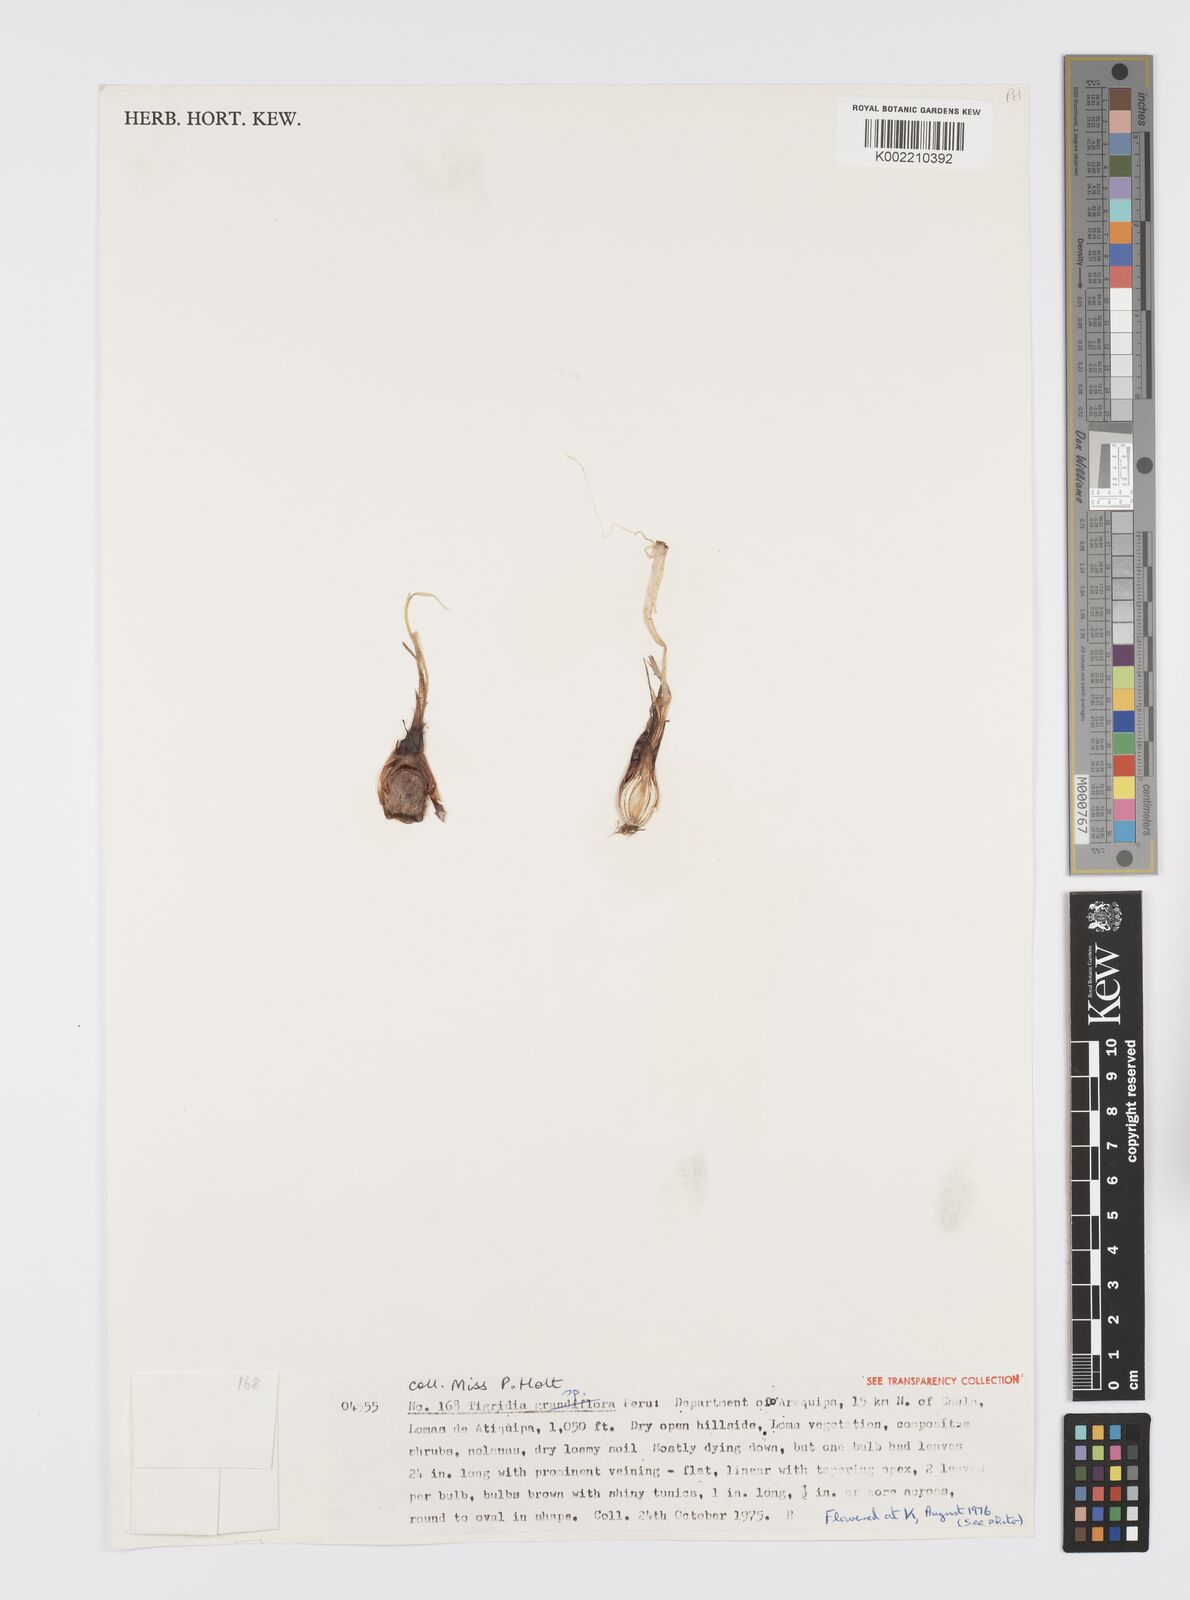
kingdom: Plantae
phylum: Tracheophyta
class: Liliopsida
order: Asparagales
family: Iridaceae
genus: Tigridia
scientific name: Tigridia
